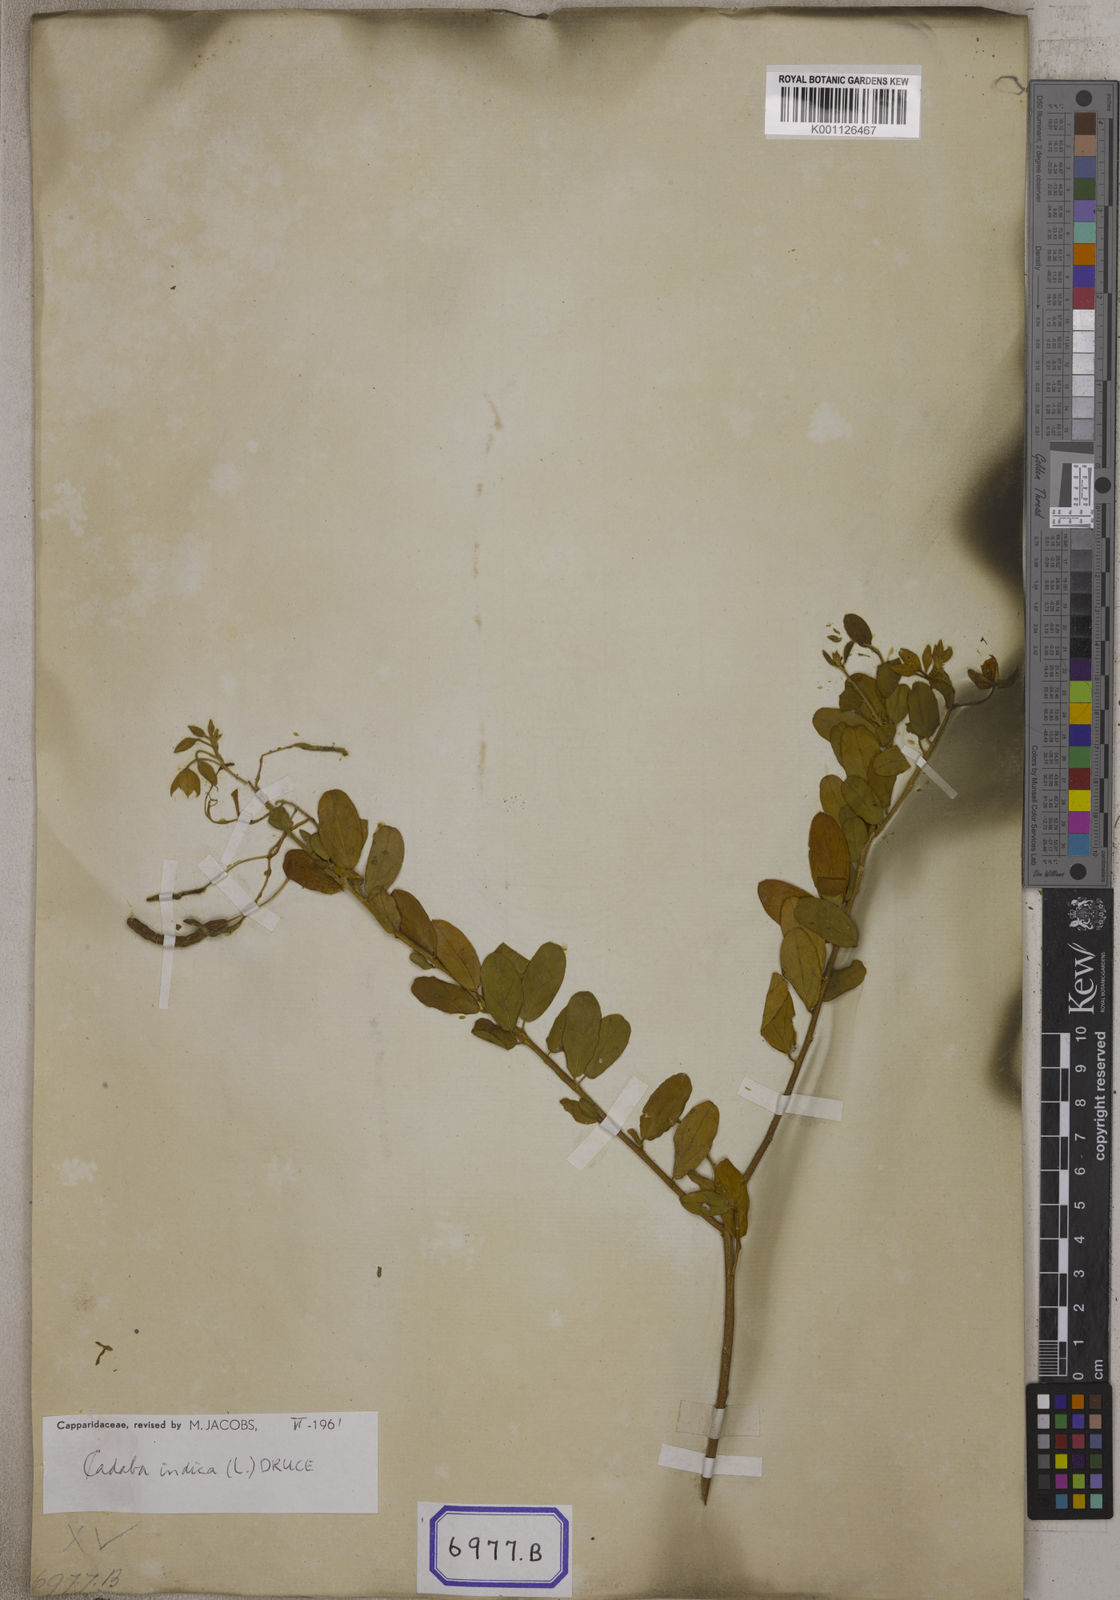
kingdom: Plantae
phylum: Tracheophyta
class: Magnoliopsida
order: Brassicales
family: Capparaceae
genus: Cadaba
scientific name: Cadaba fruticosa
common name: Indian cadaba
